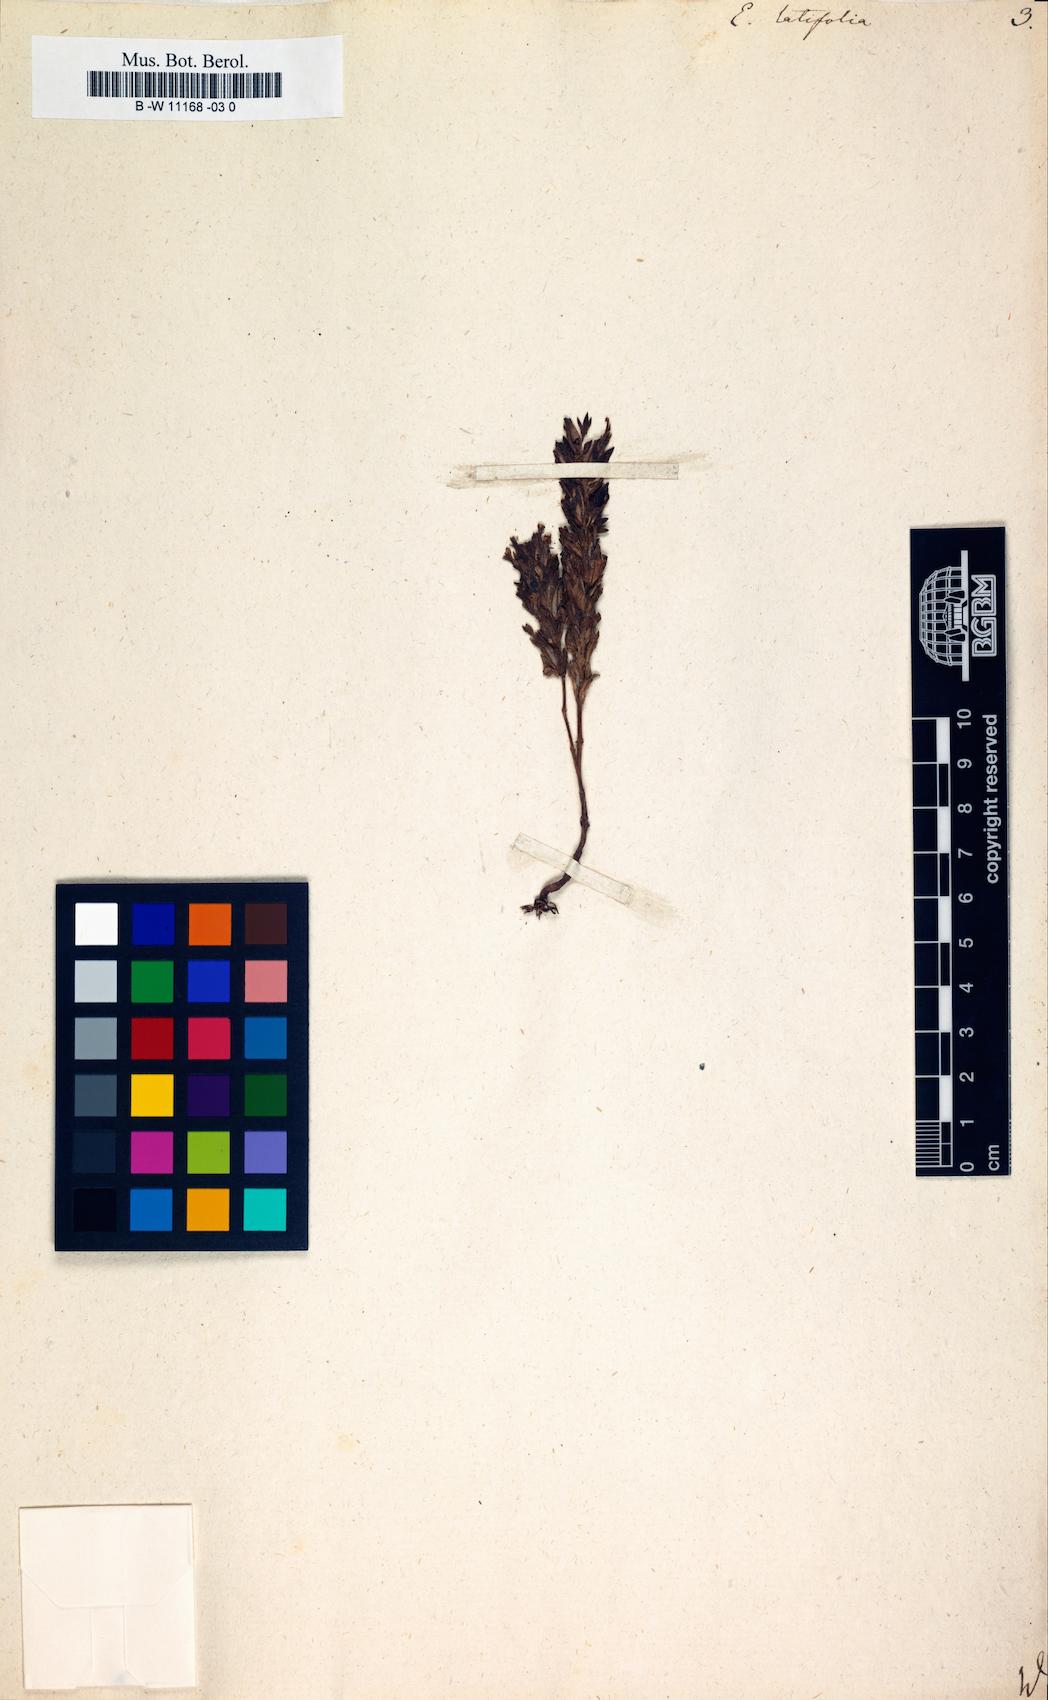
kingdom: Plantae
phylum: Tracheophyta
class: Magnoliopsida
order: Lamiales
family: Orobanchaceae
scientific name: Orobanchaceae
